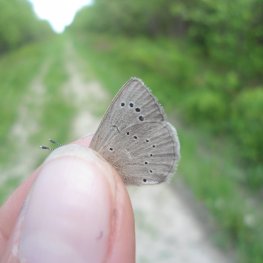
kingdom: Animalia
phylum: Arthropoda
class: Insecta
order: Lepidoptera
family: Lycaenidae
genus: Glaucopsyche
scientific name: Glaucopsyche lygdamus
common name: Silvery Blue
